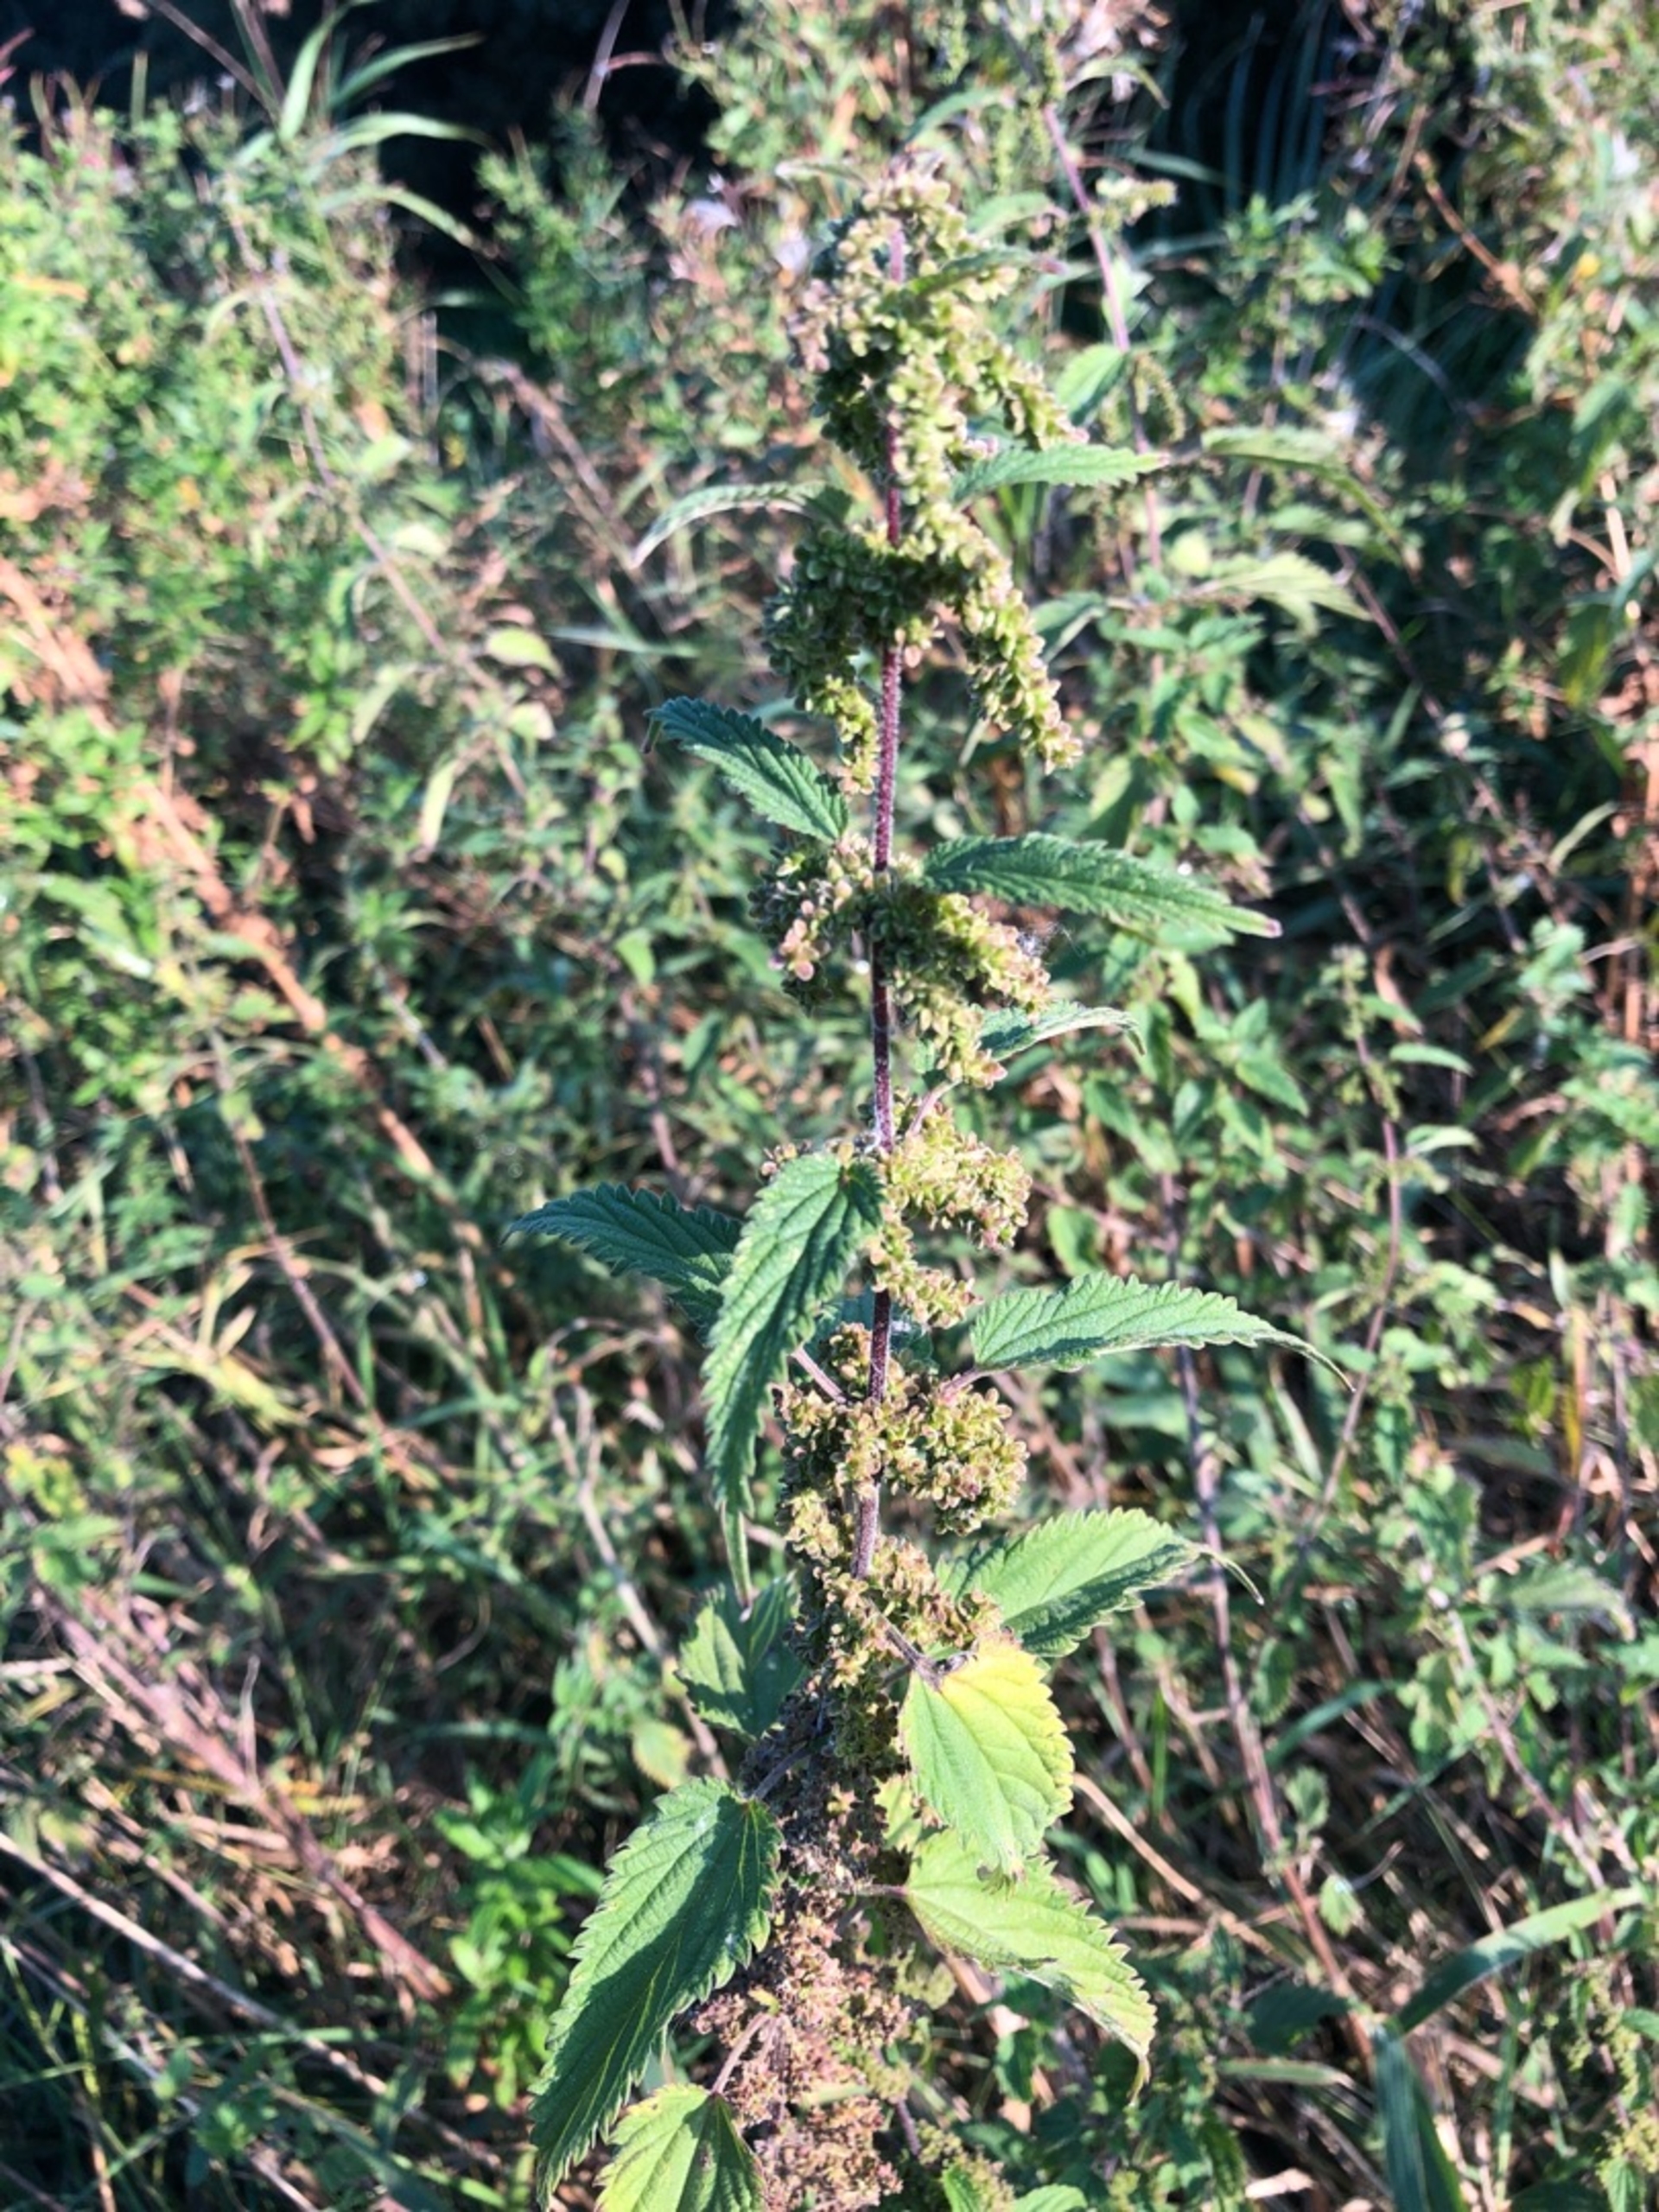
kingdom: Plantae
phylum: Tracheophyta
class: Magnoliopsida
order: Rosales
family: Urticaceae
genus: Urtica
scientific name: Urtica dioica
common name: Stor nælde
